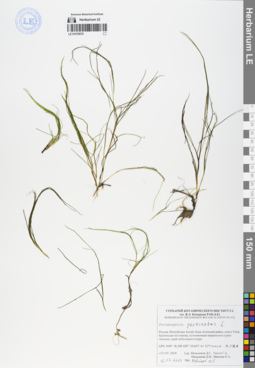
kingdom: Plantae
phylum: Tracheophyta
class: Liliopsida
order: Alismatales
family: Potamogetonaceae
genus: Stuckenia
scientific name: Stuckenia pectinata
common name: Sago pondweed
